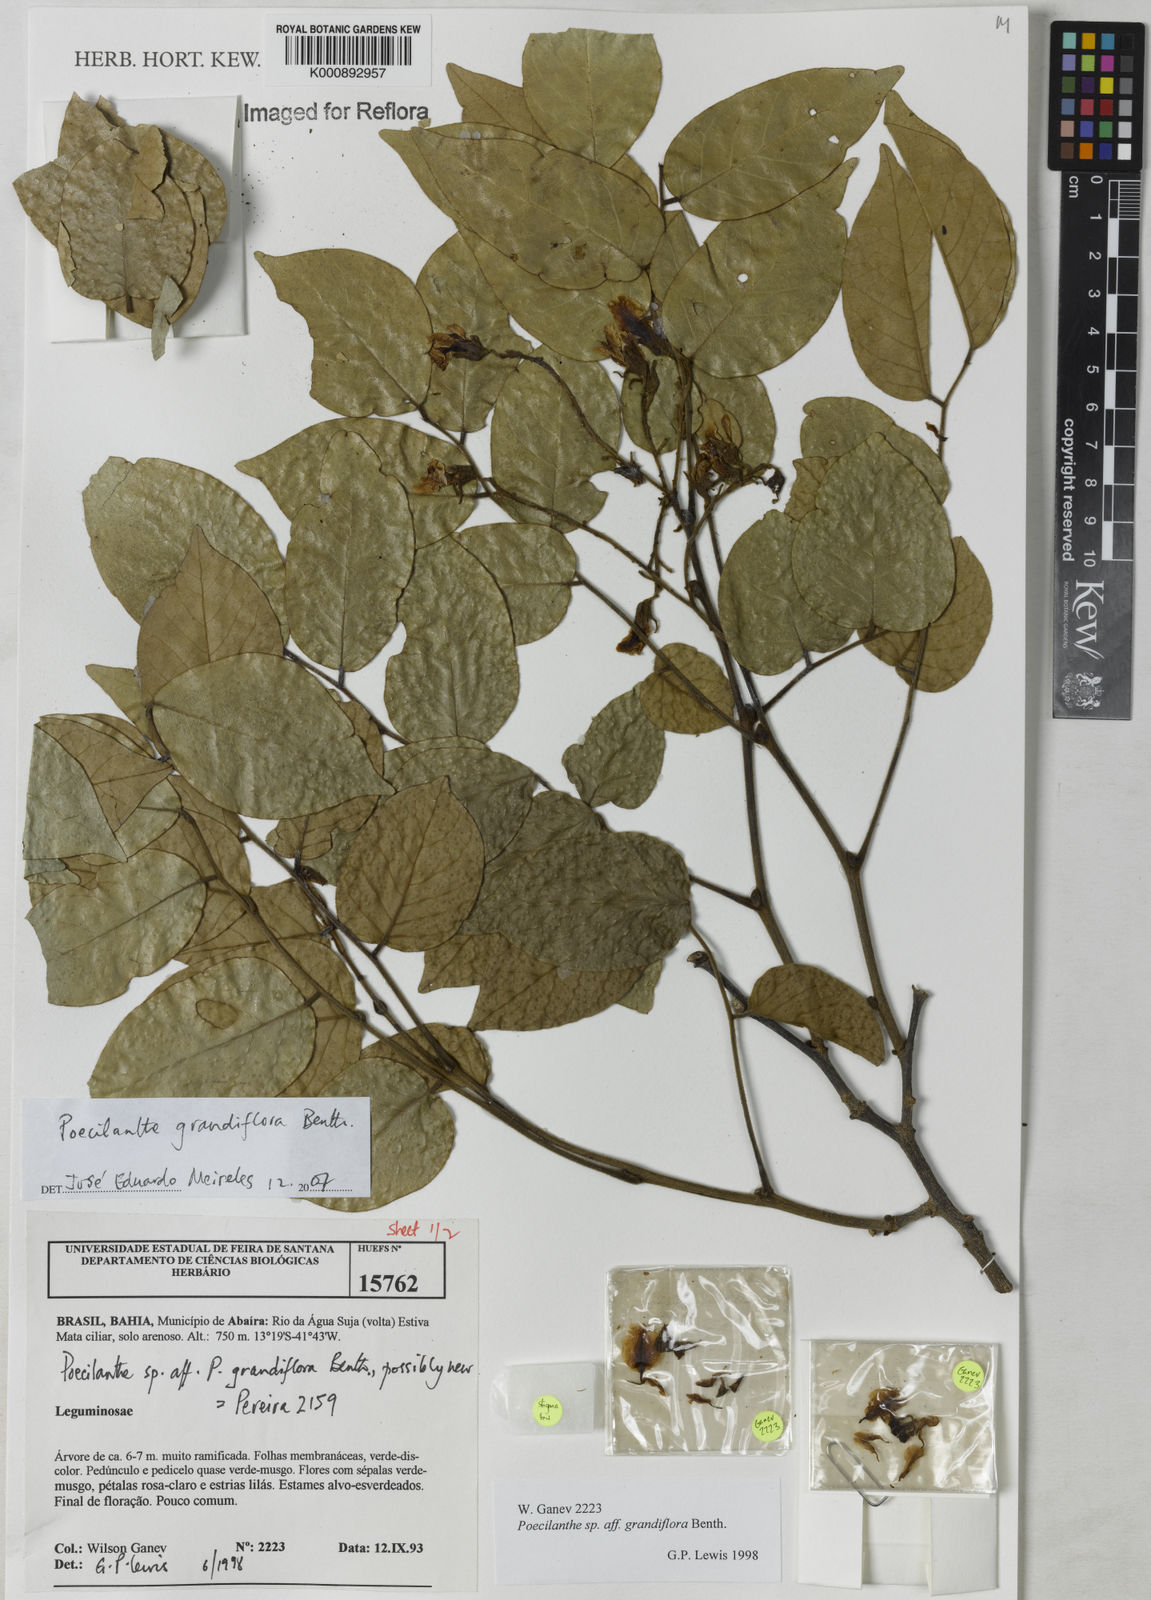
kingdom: Plantae
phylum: Tracheophyta
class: Magnoliopsida
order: Fabales
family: Fabaceae
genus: Poecilanthe
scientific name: Poecilanthe grandiflora
